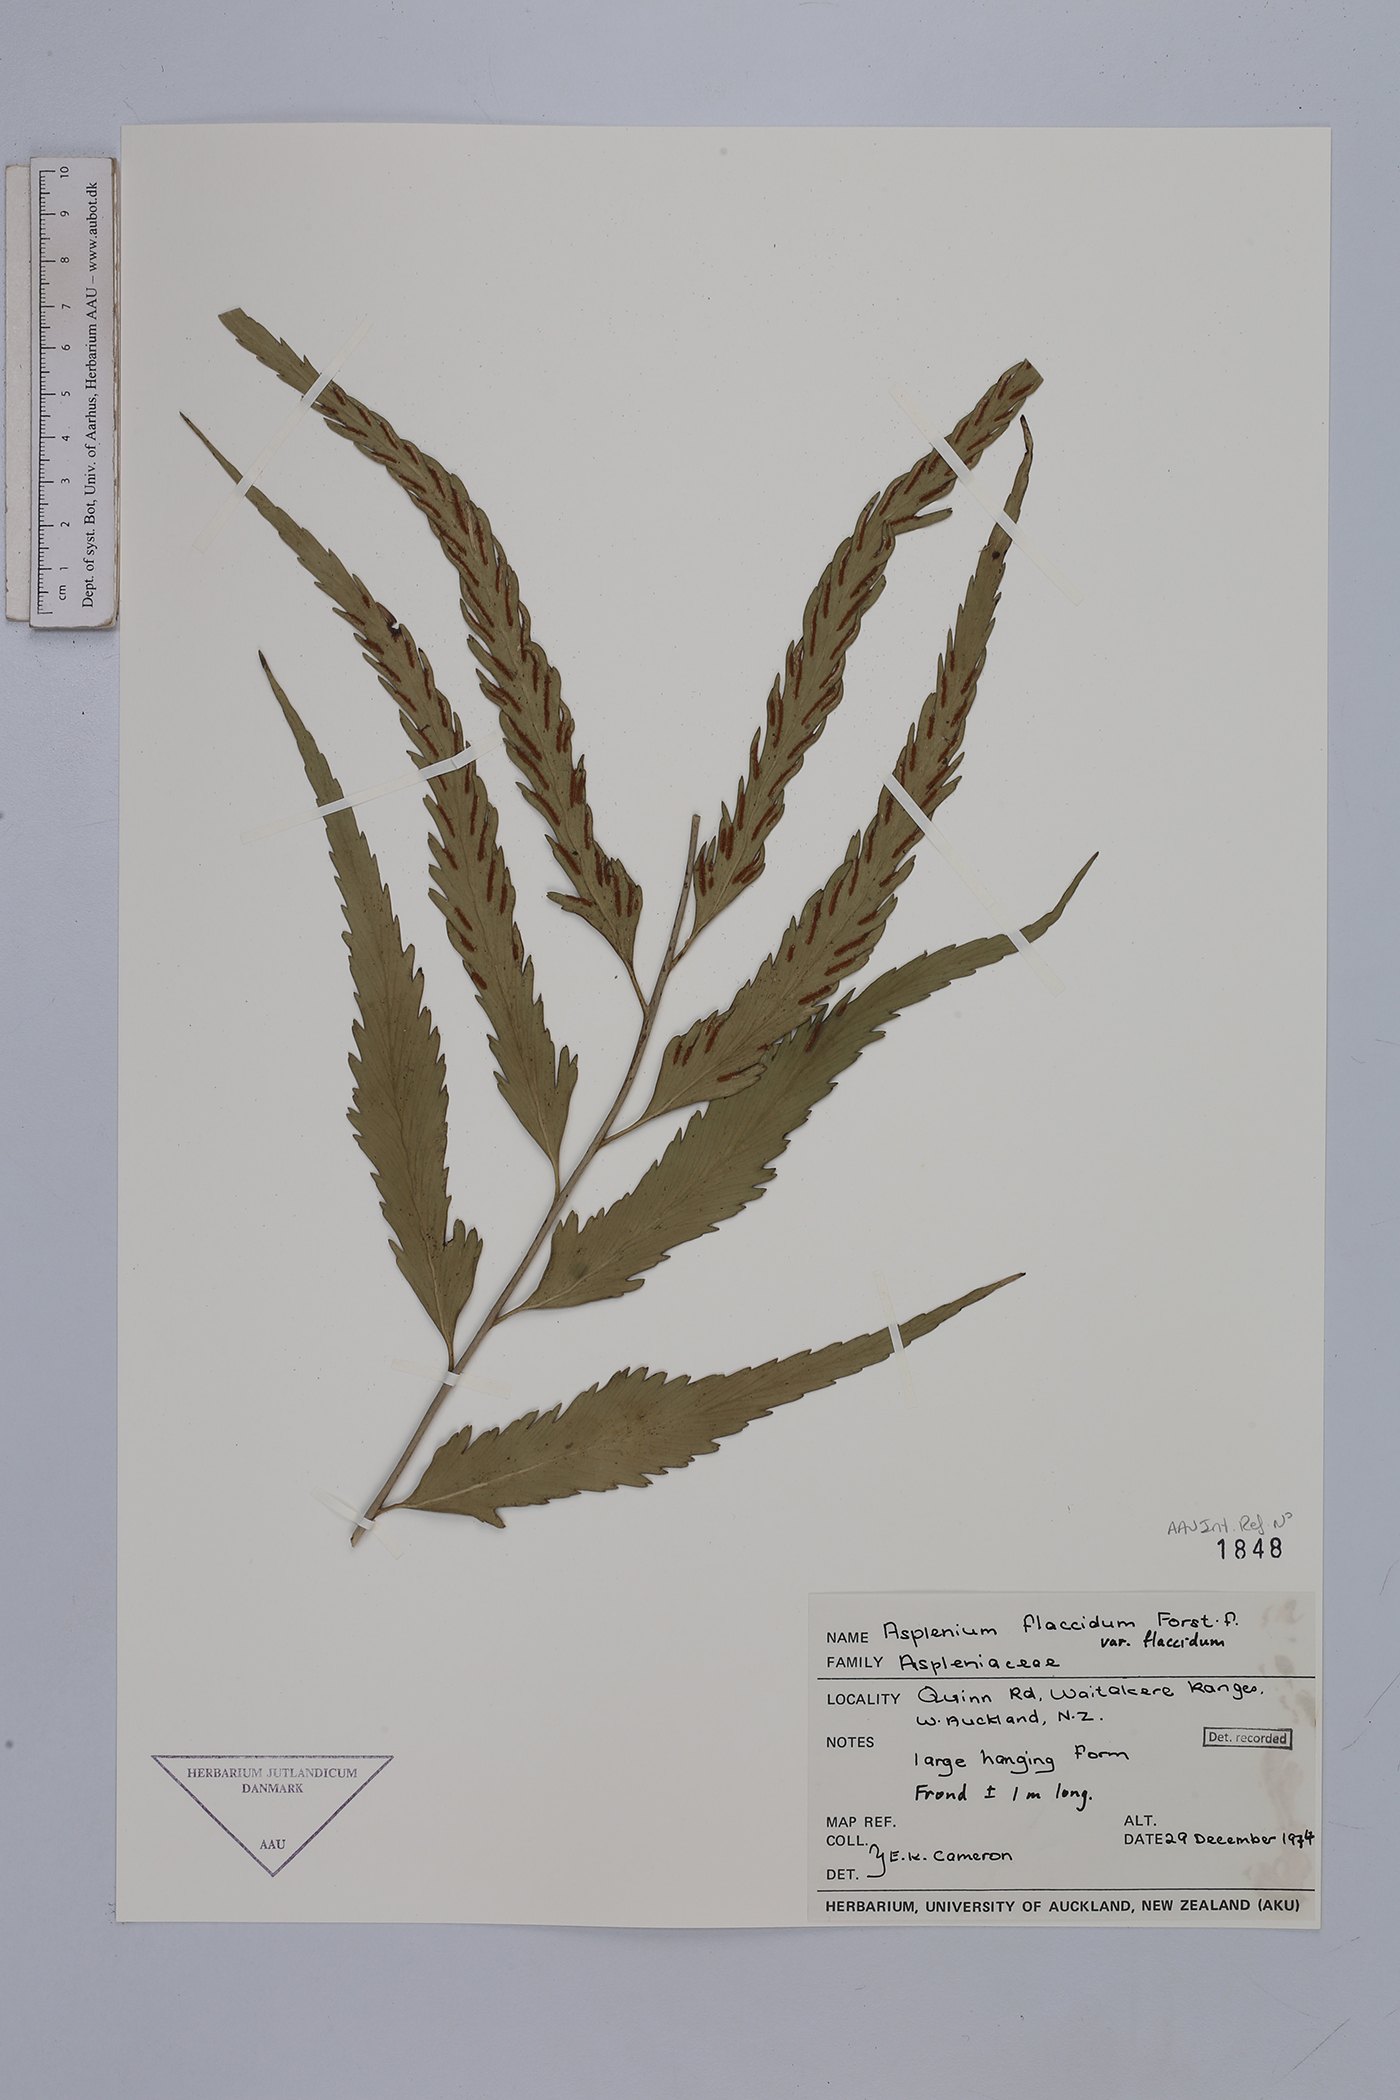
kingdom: Plantae
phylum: Tracheophyta
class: Polypodiopsida
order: Polypodiales
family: Aspleniaceae
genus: Asplenium
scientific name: Asplenium flaccidum
